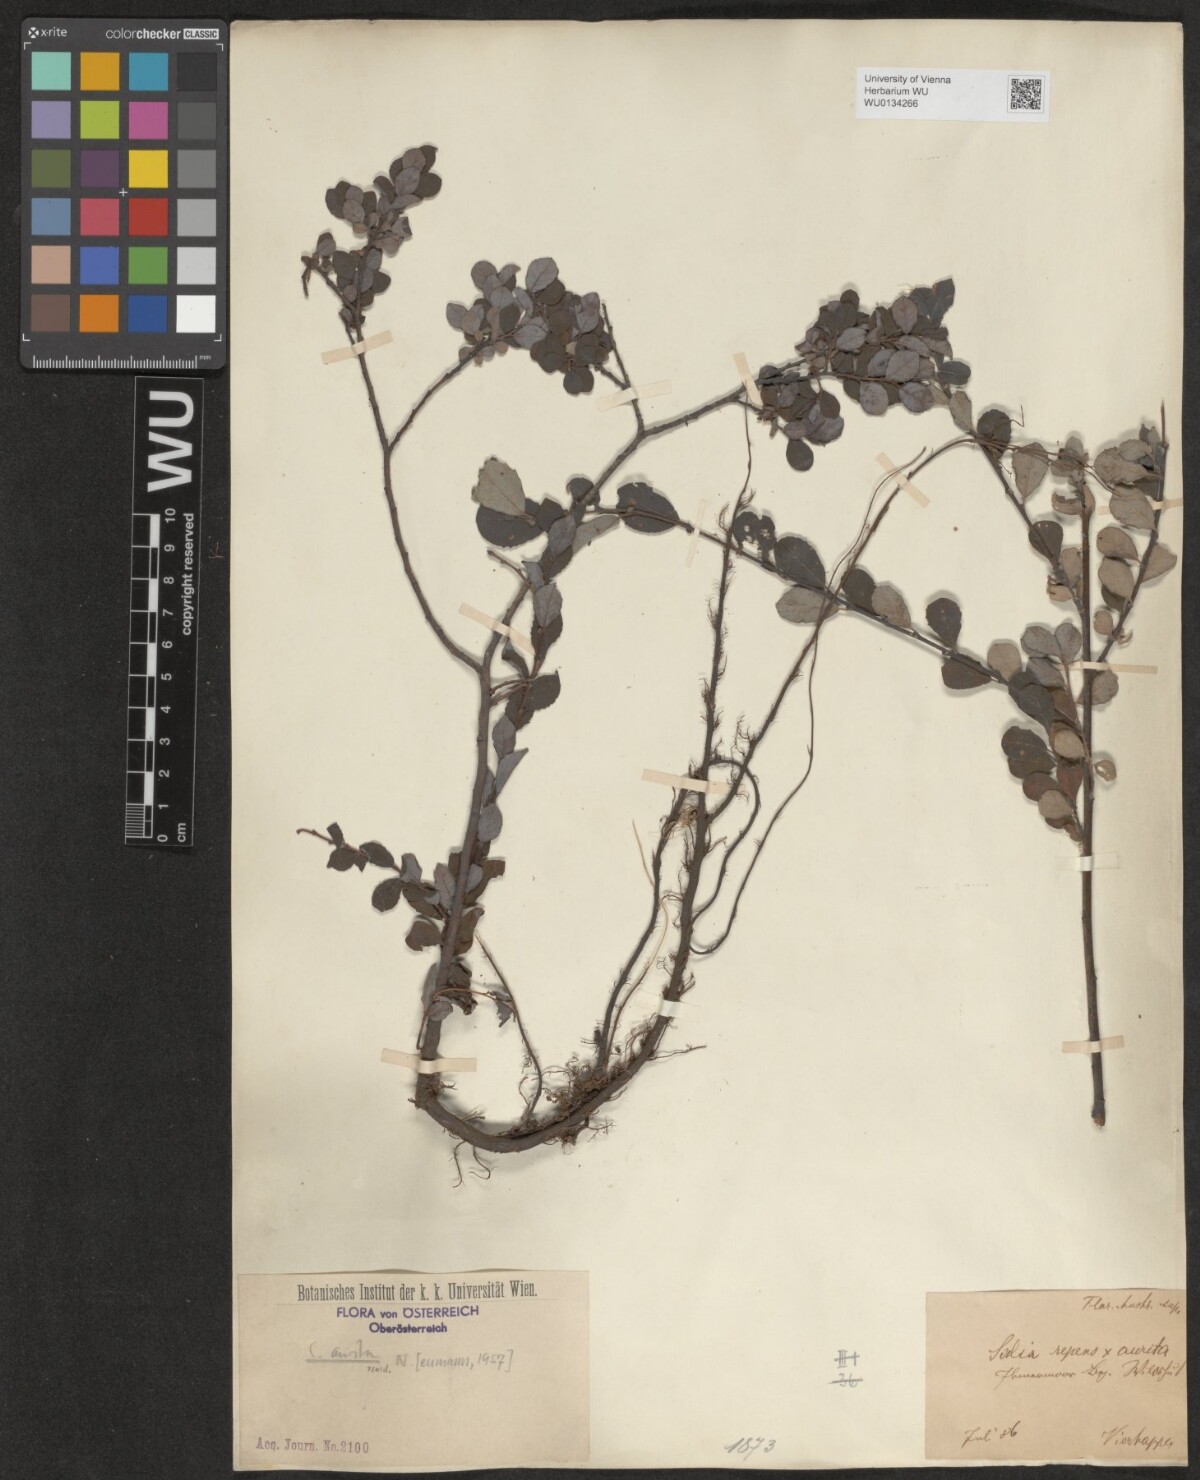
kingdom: Plantae
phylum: Tracheophyta
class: Magnoliopsida
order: Malpighiales
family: Salicaceae
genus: Salix
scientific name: Salix aurita
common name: Eared willow
